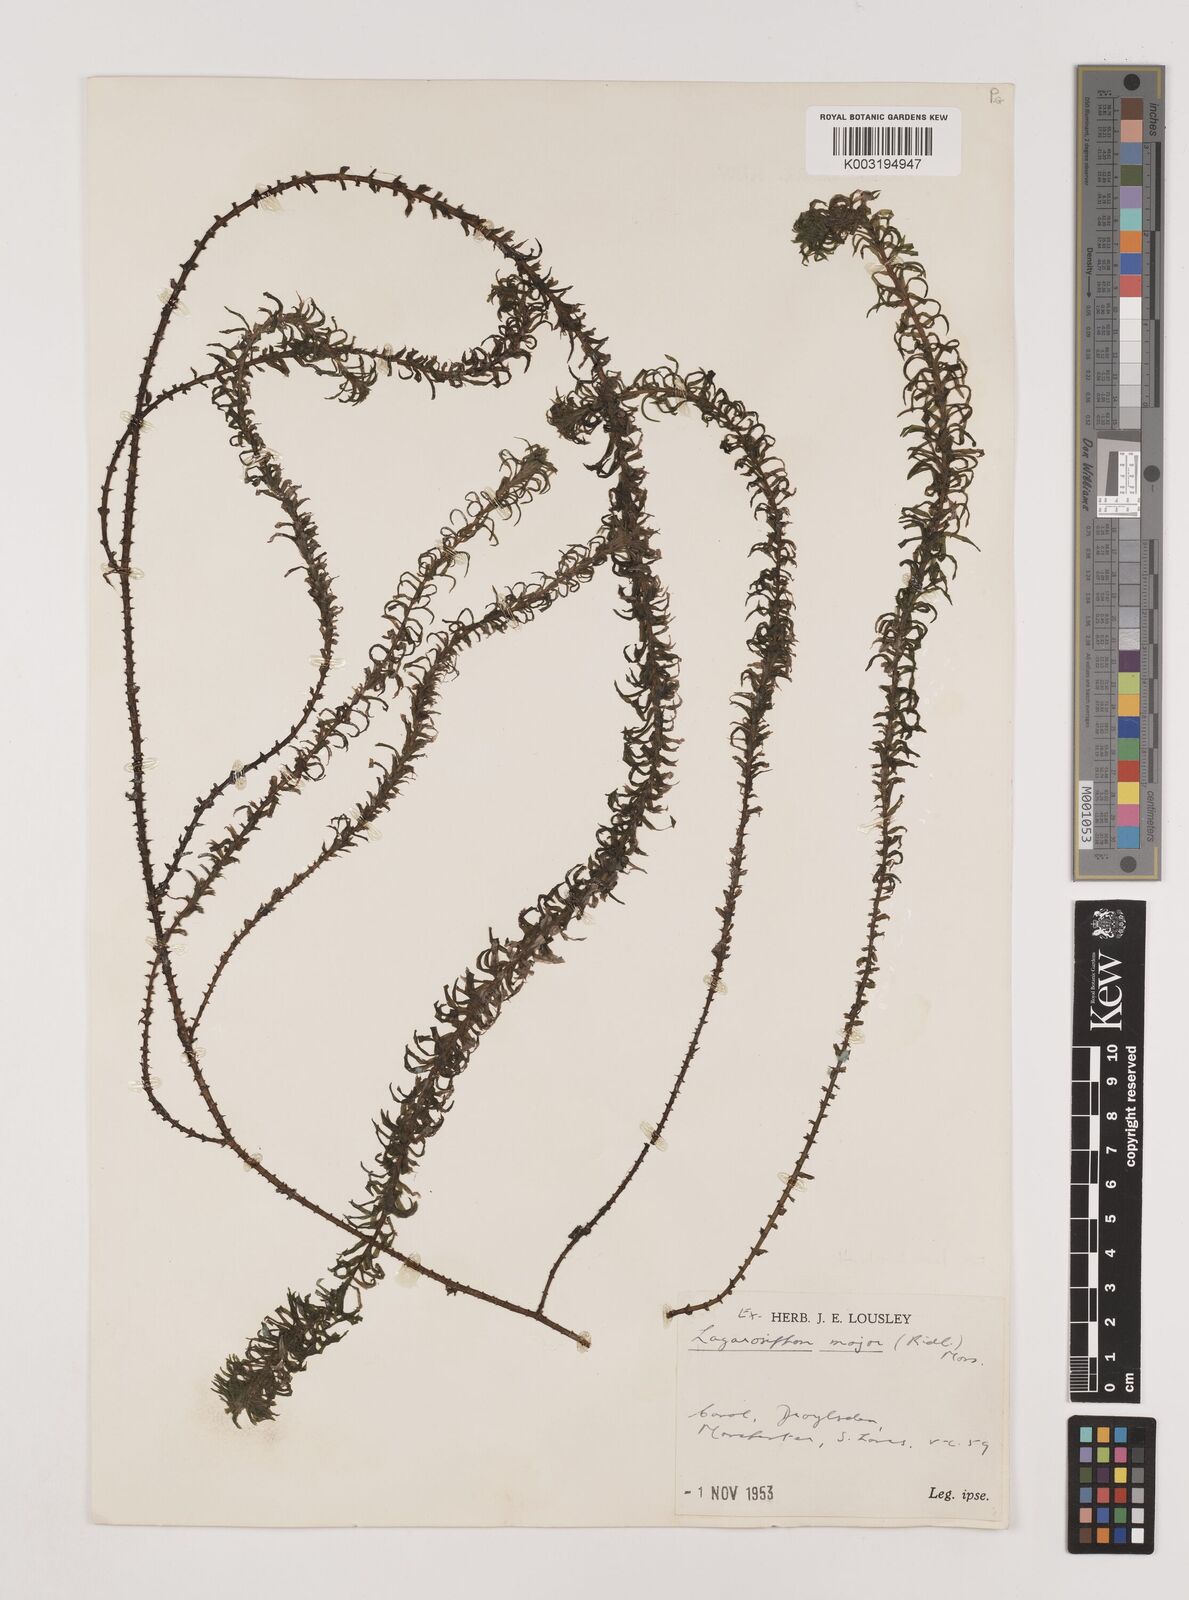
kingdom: Plantae
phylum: Tracheophyta
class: Liliopsida
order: Alismatales
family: Hydrocharitaceae
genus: Lagarosiphon
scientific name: Lagarosiphon major
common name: Curly waterweed
